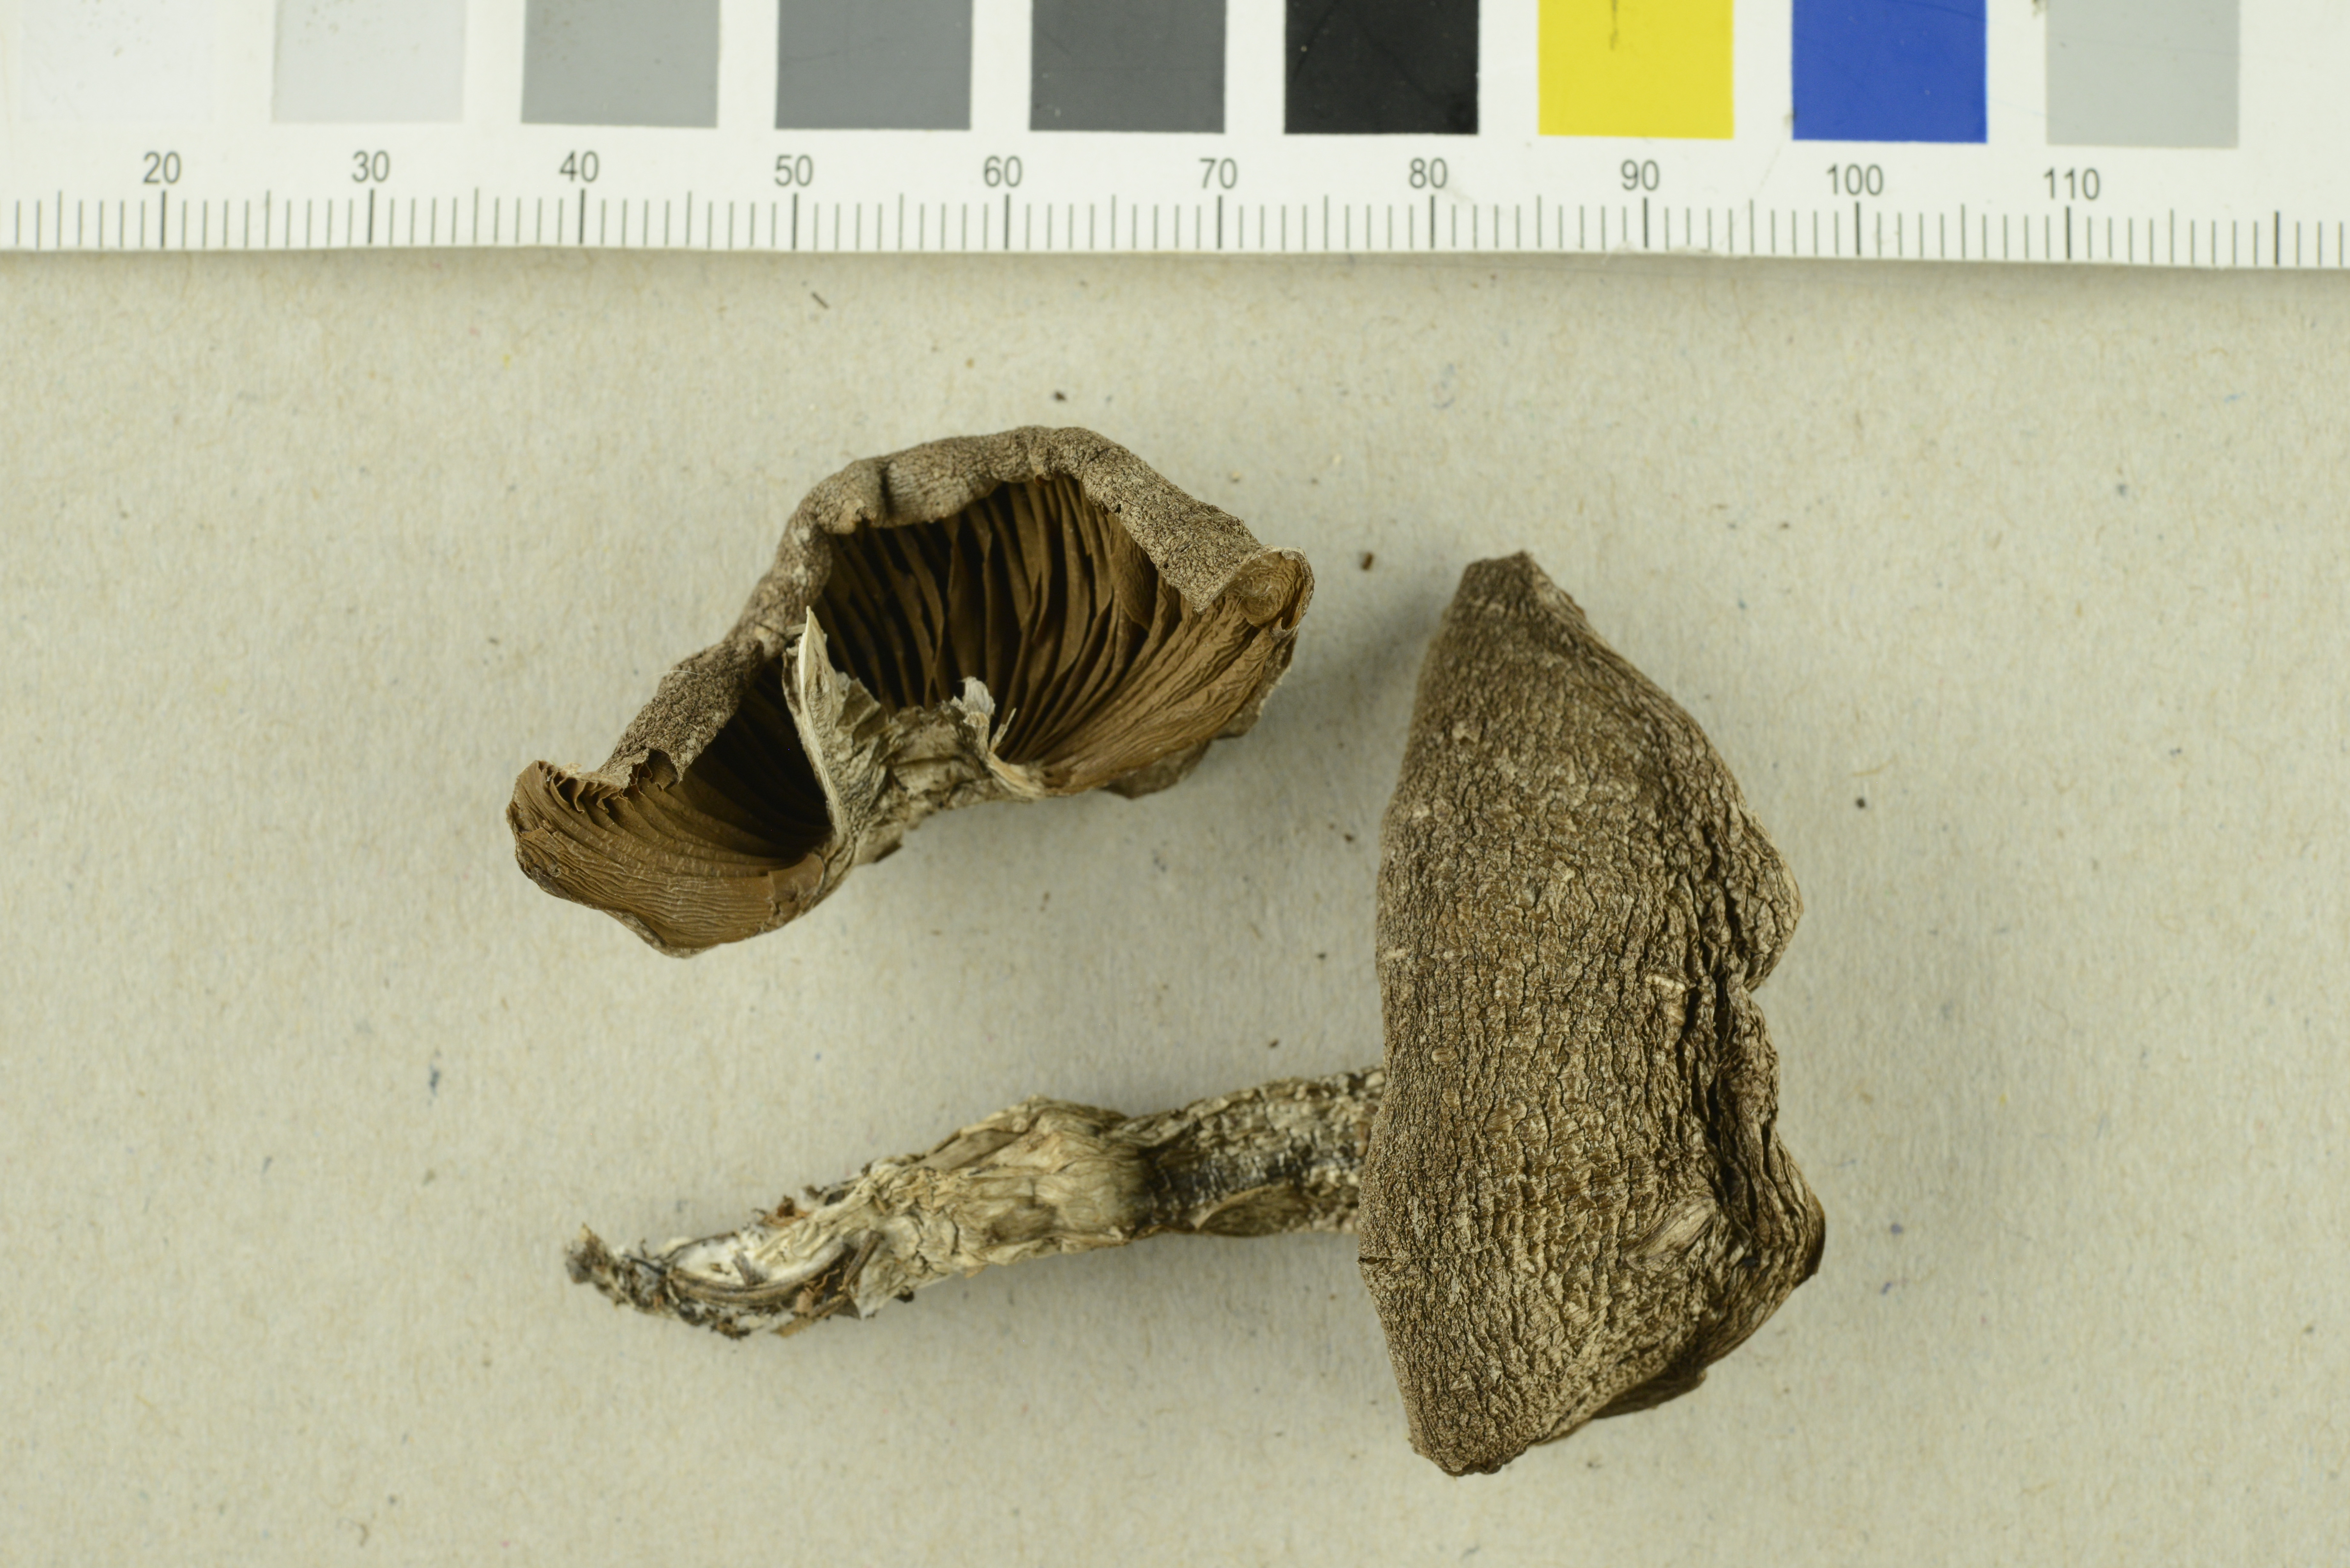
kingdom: Fungi
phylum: Basidiomycota
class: Agaricomycetes
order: Agaricales
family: Cortinariaceae
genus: Cortinarius
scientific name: Cortinarius
